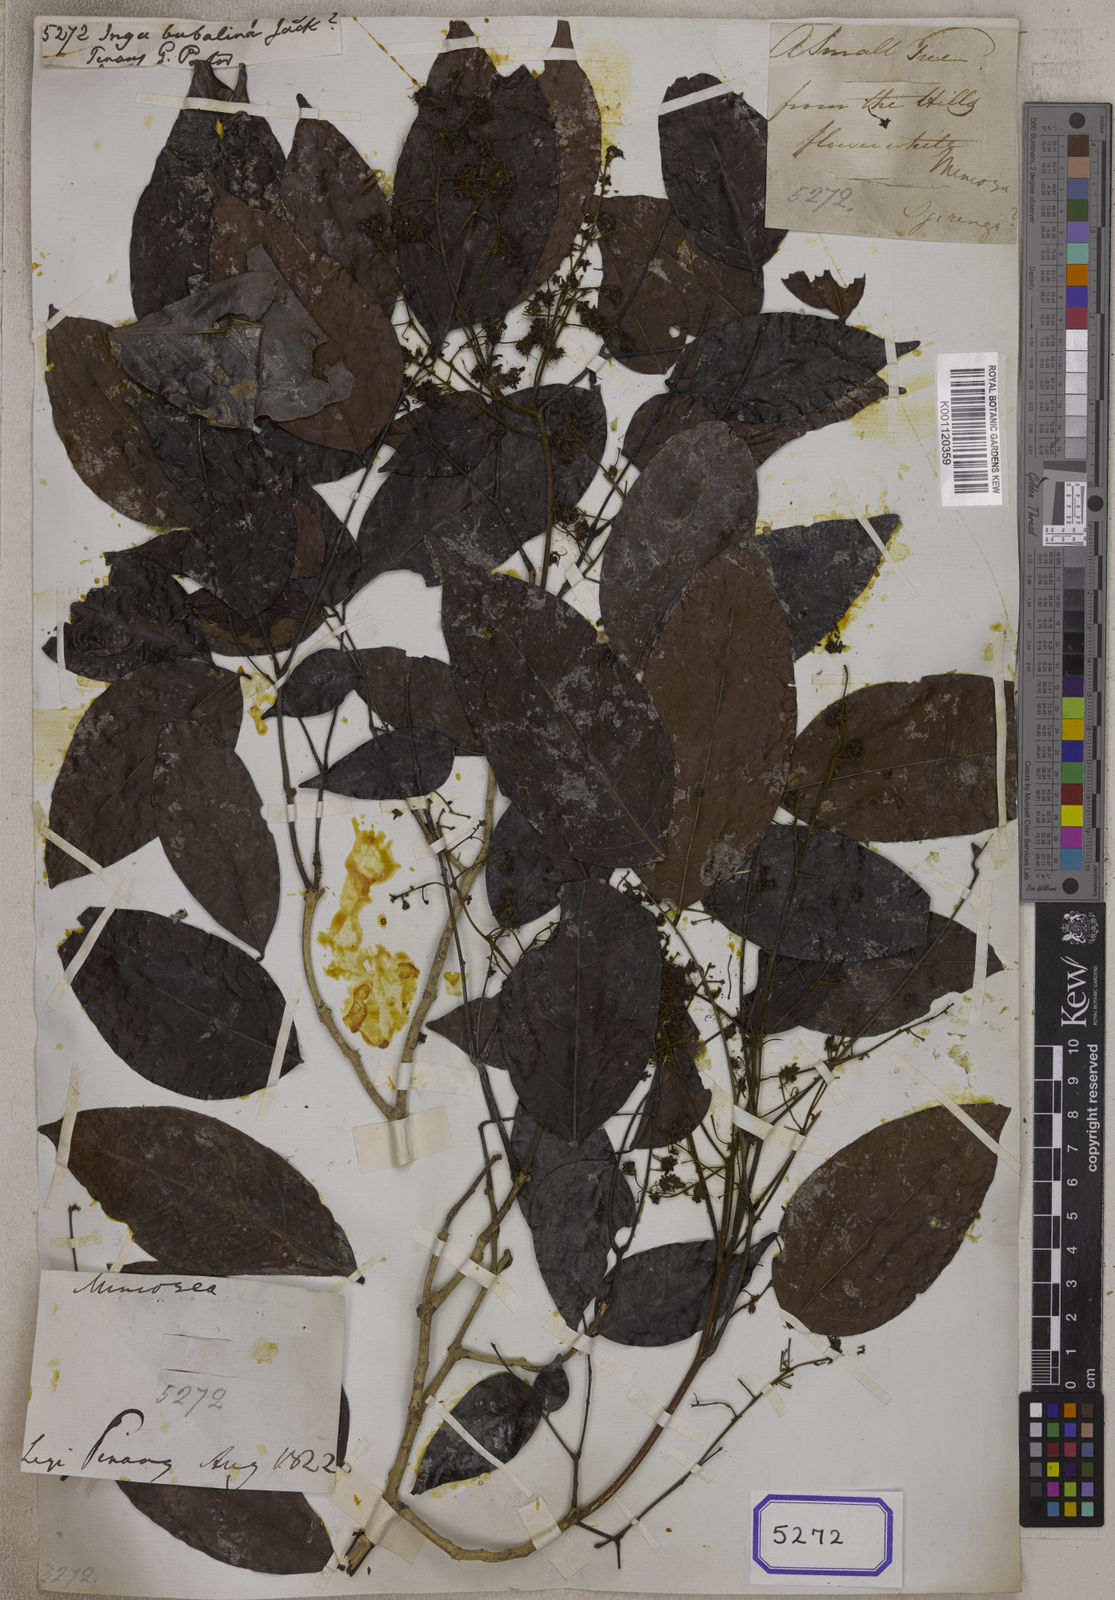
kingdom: Plantae
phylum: Tracheophyta
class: Magnoliopsida
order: Fabales
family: Fabaceae
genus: Archidendron
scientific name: Archidendron bubalinum
